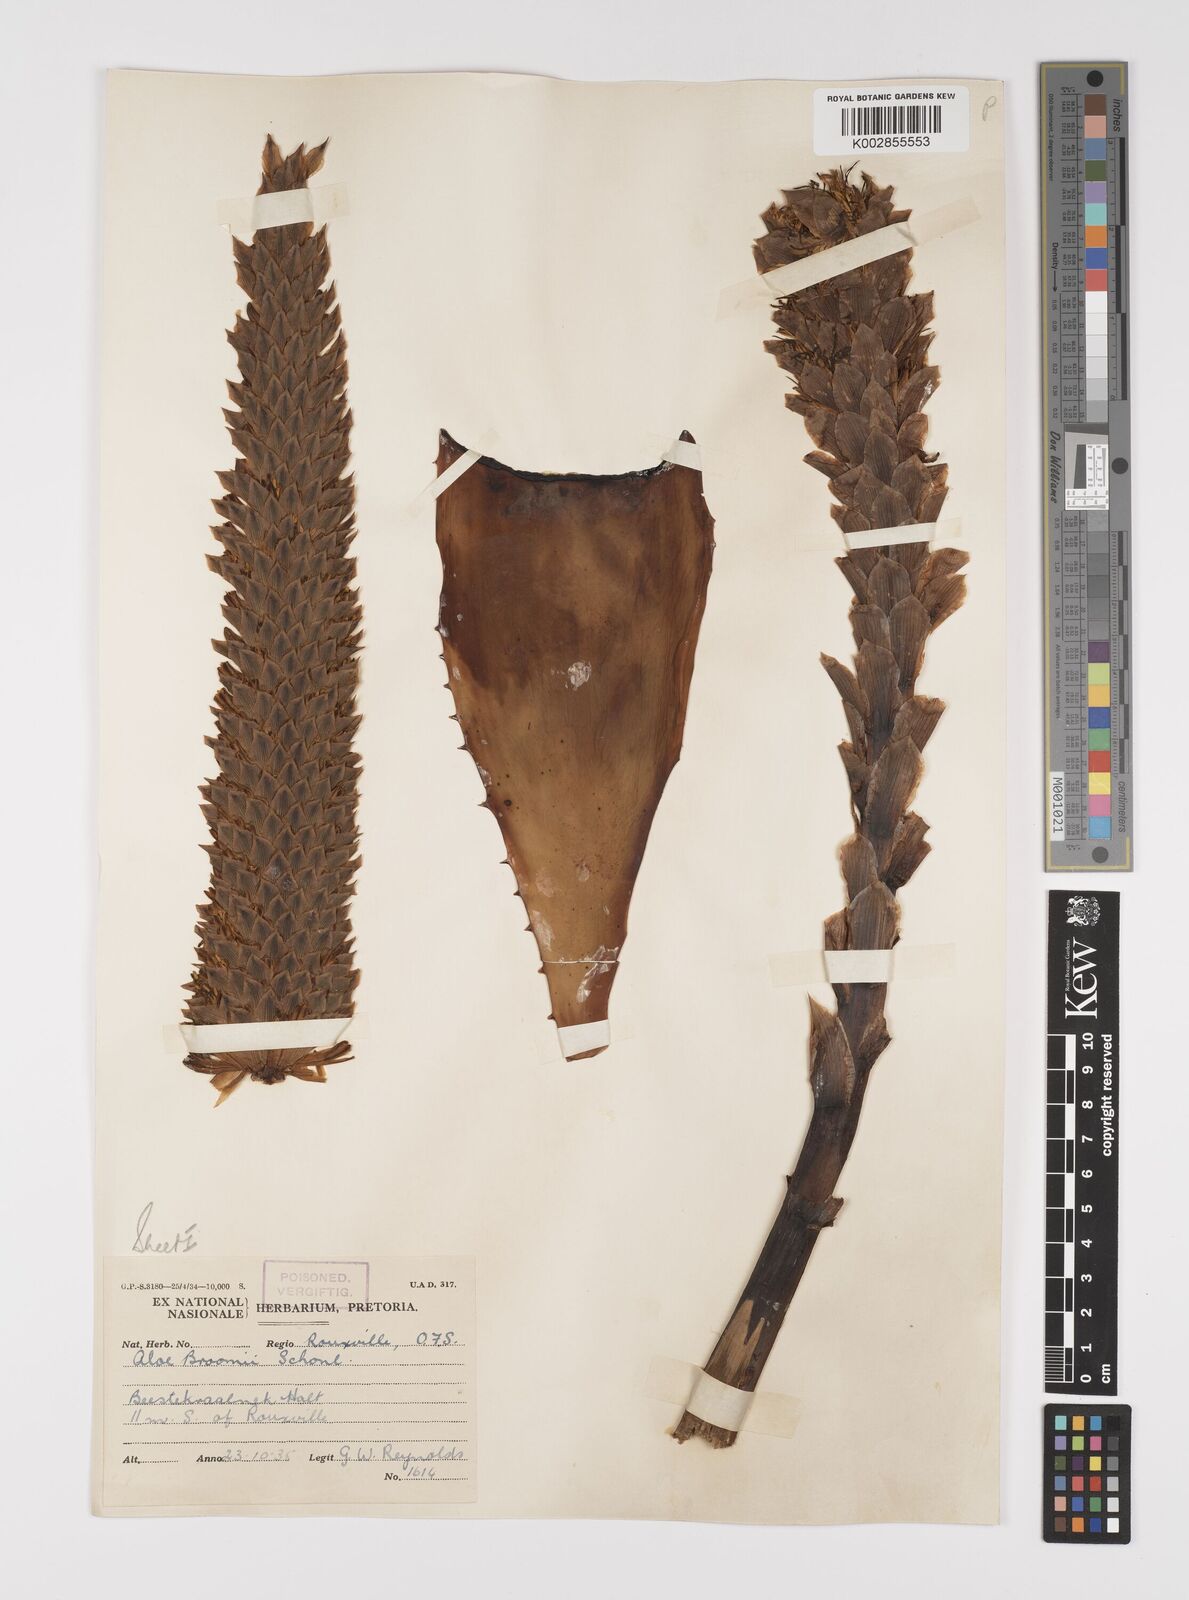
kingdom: Plantae
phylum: Tracheophyta
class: Liliopsida
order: Asparagales
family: Asphodelaceae
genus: Aloe
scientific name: Aloe broomii
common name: Berg alwyn
